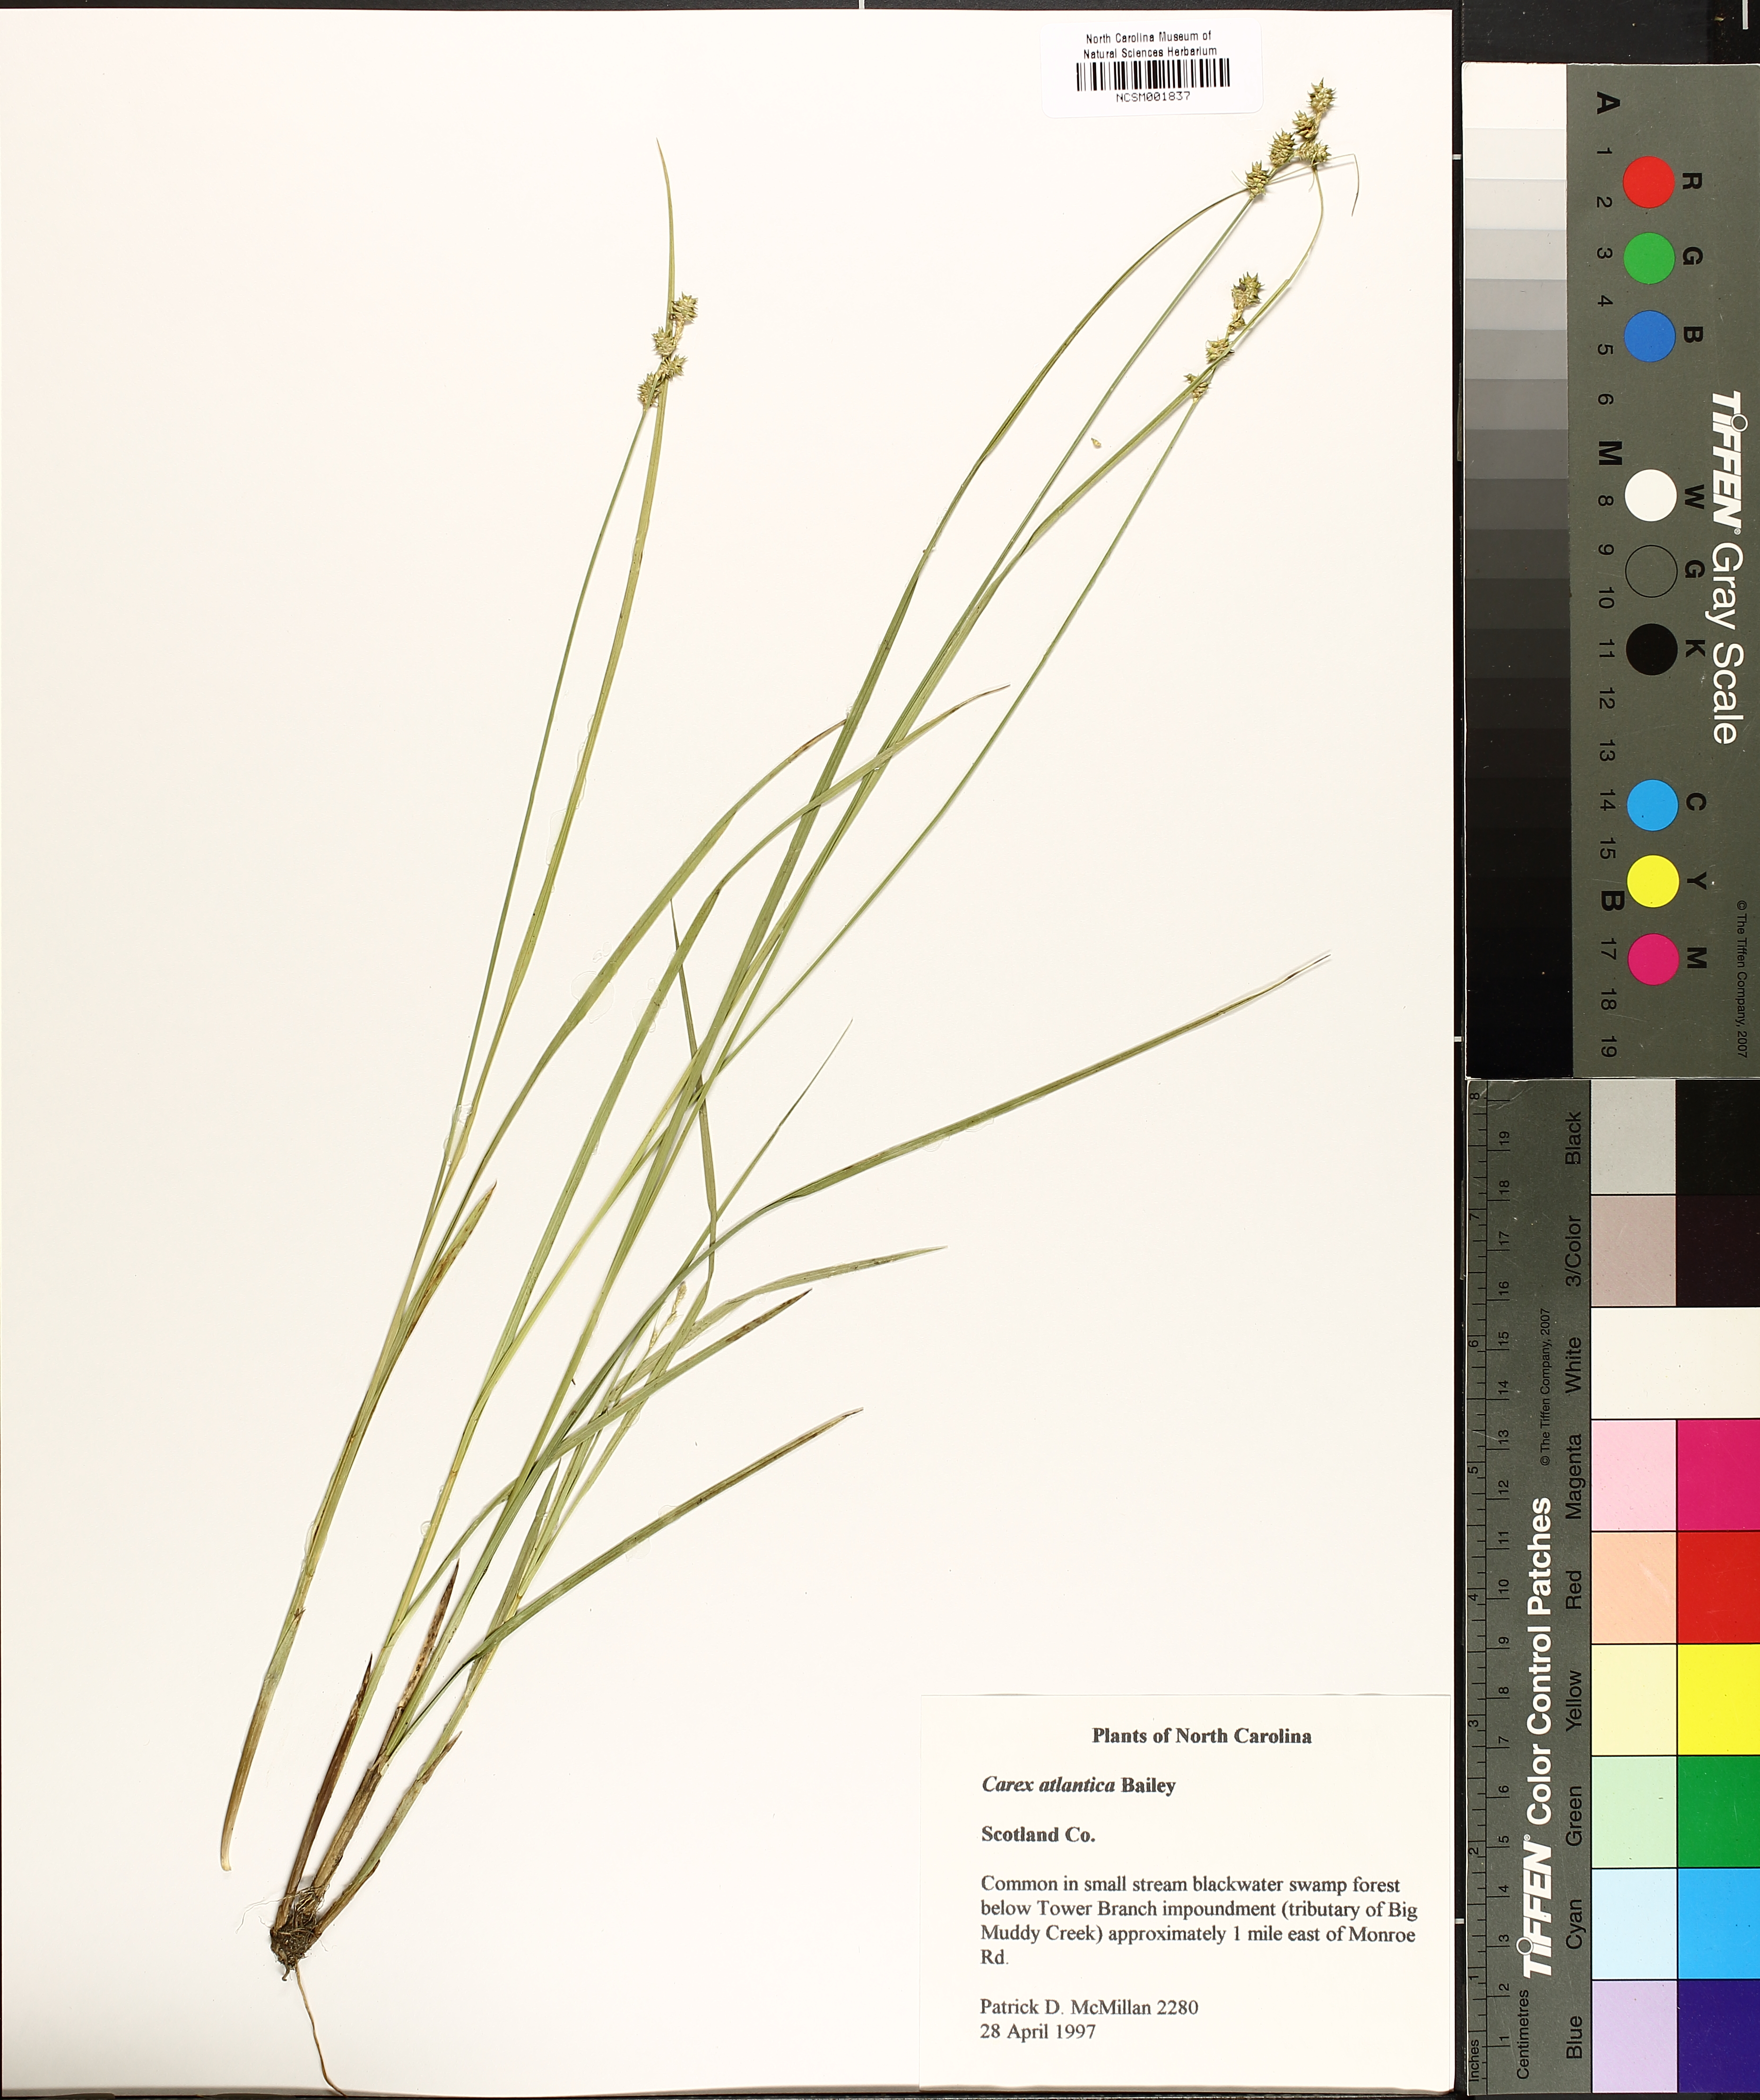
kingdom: Plantae
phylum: Tracheophyta
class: Liliopsida
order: Poales
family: Cyperaceae
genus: Carex
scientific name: Carex atlantica
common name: Atlantic sedge
